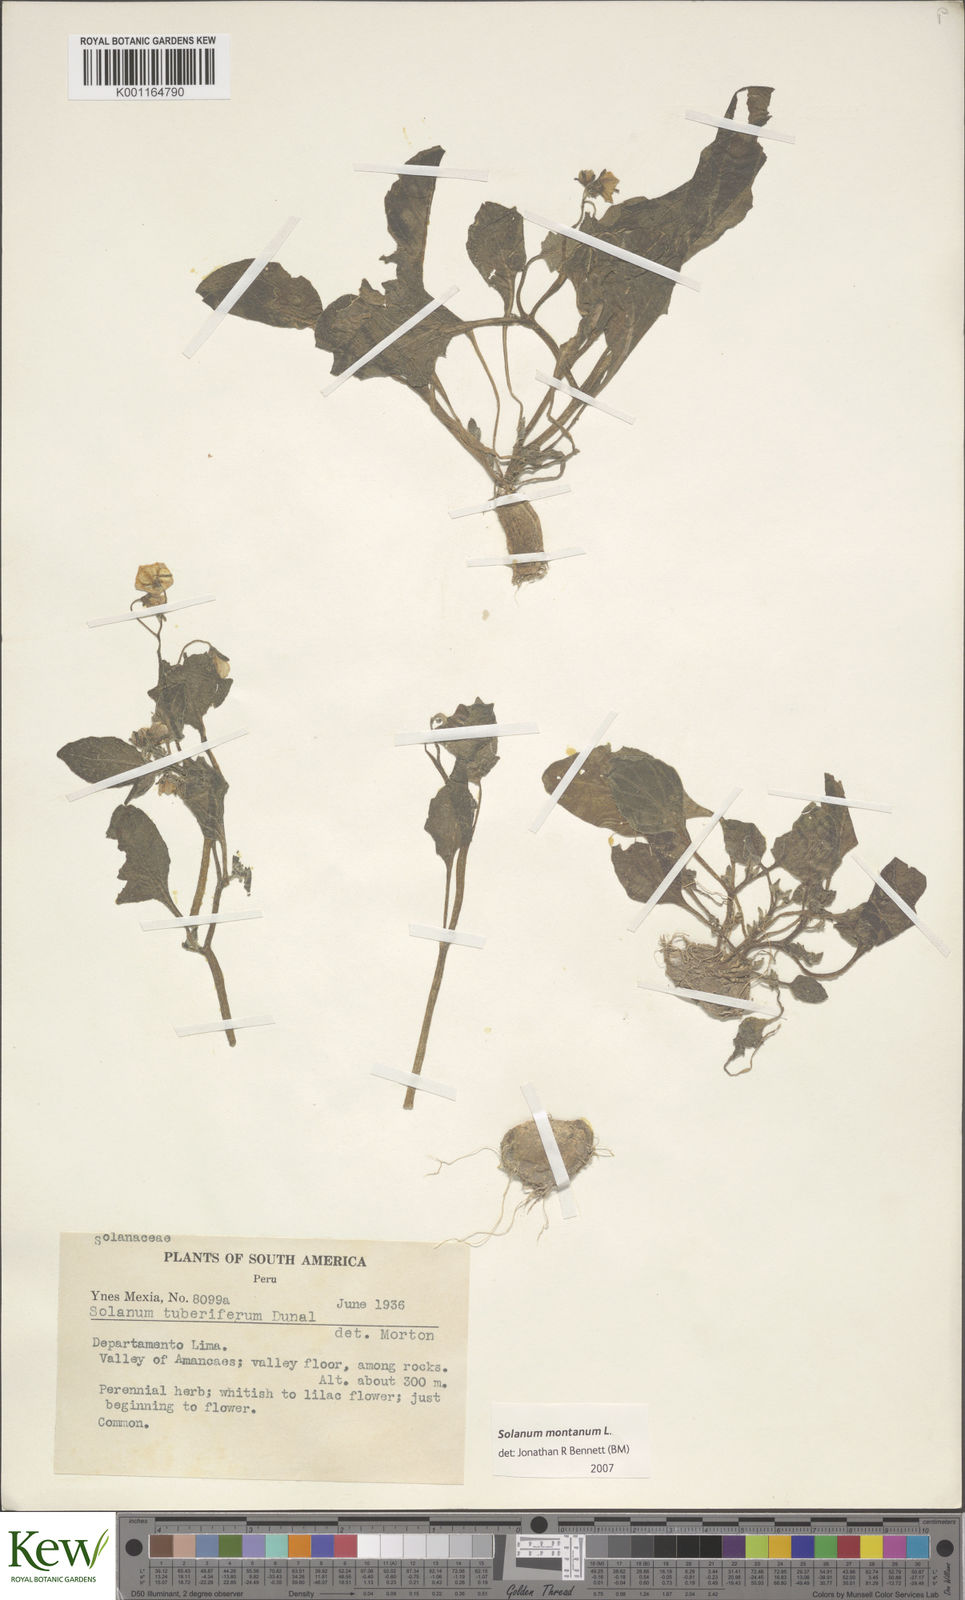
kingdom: Plantae
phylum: Tracheophyta
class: Magnoliopsida
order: Solanales
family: Solanaceae
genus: Solanum
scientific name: Solanum montanum
